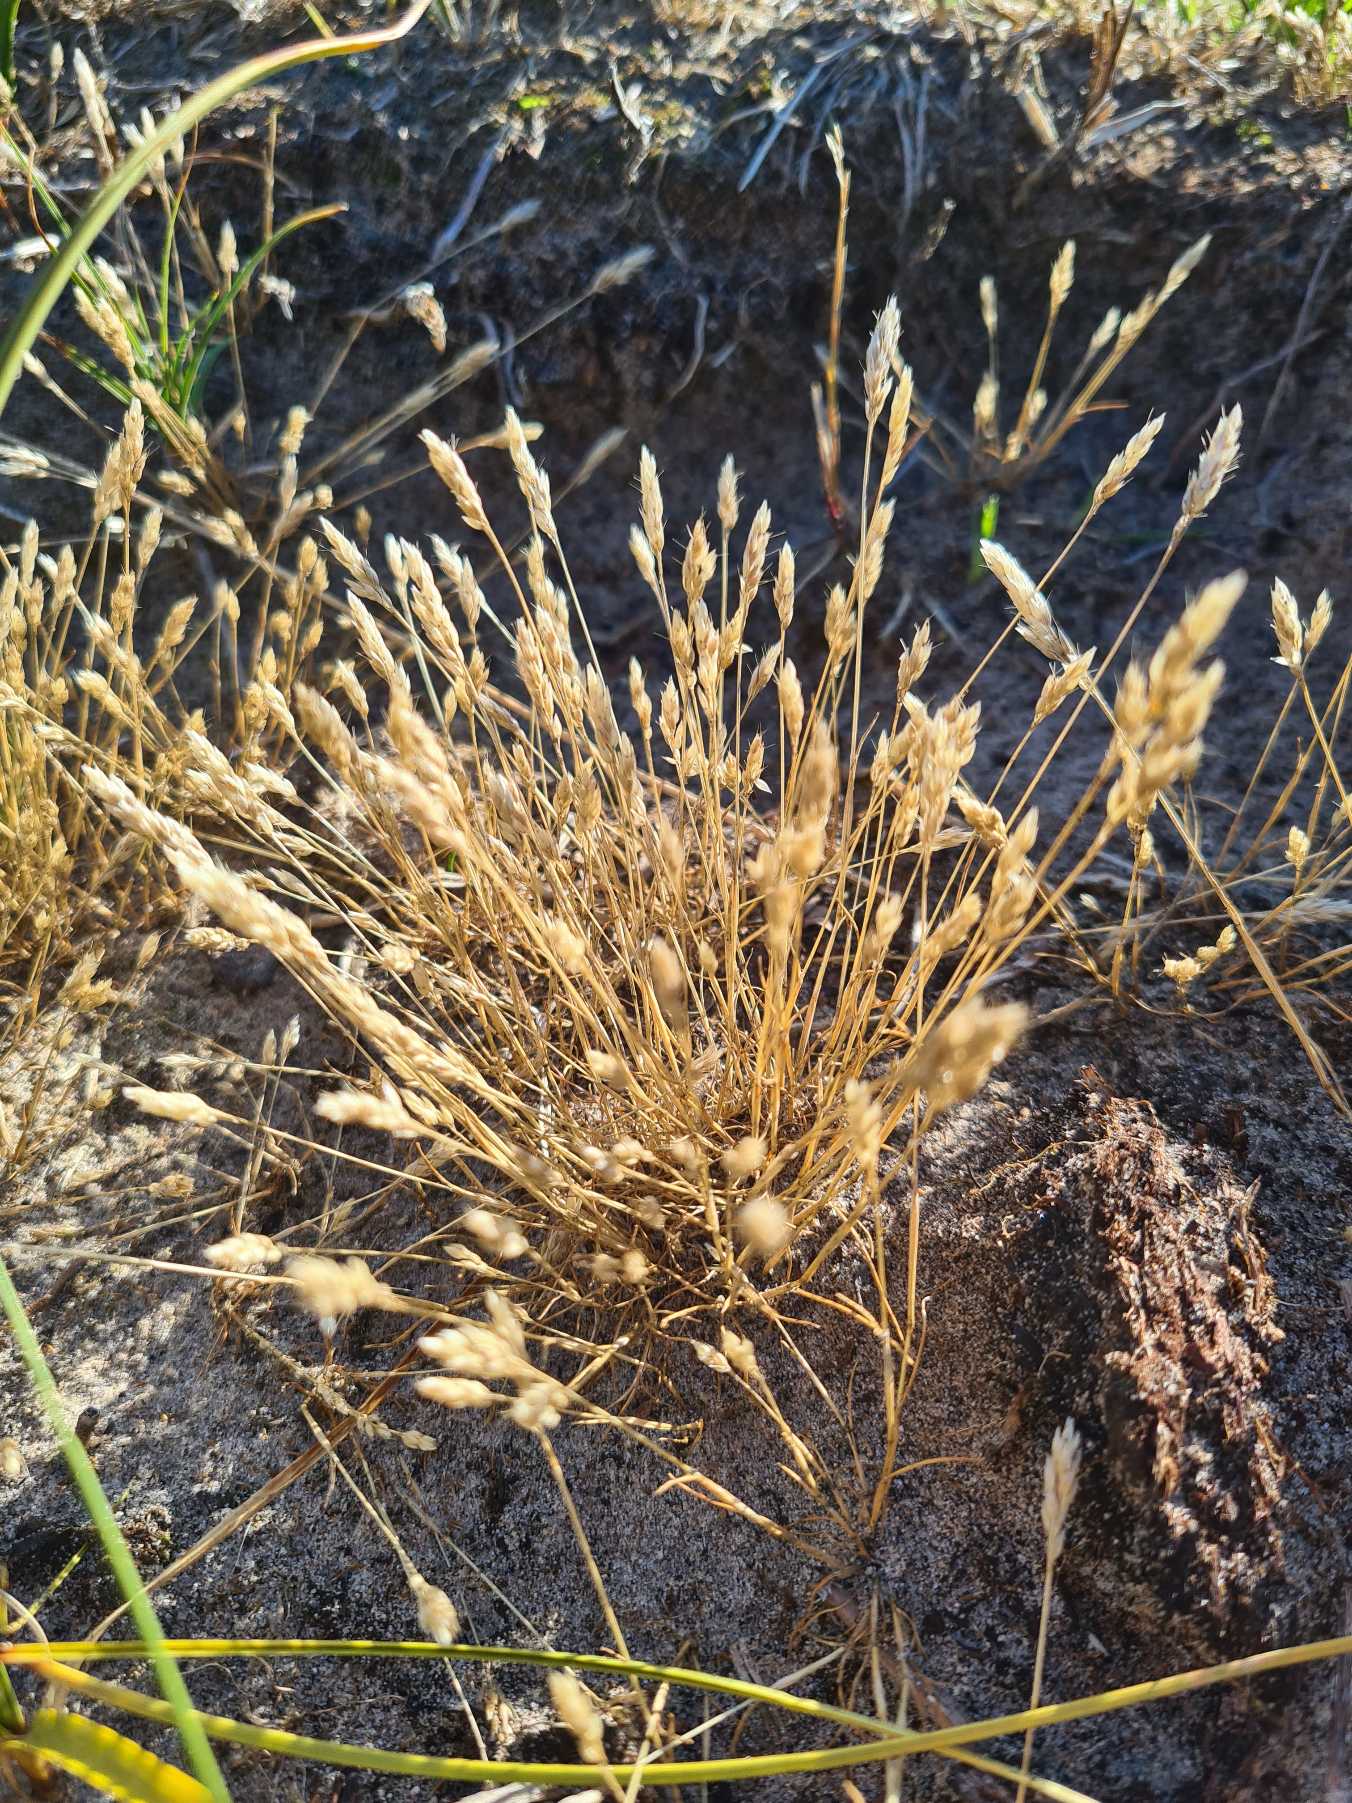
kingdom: Plantae
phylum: Tracheophyta
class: Liliopsida
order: Poales
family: Poaceae
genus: Aira
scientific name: Aira praecox
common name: Tidlig dværgbunke
